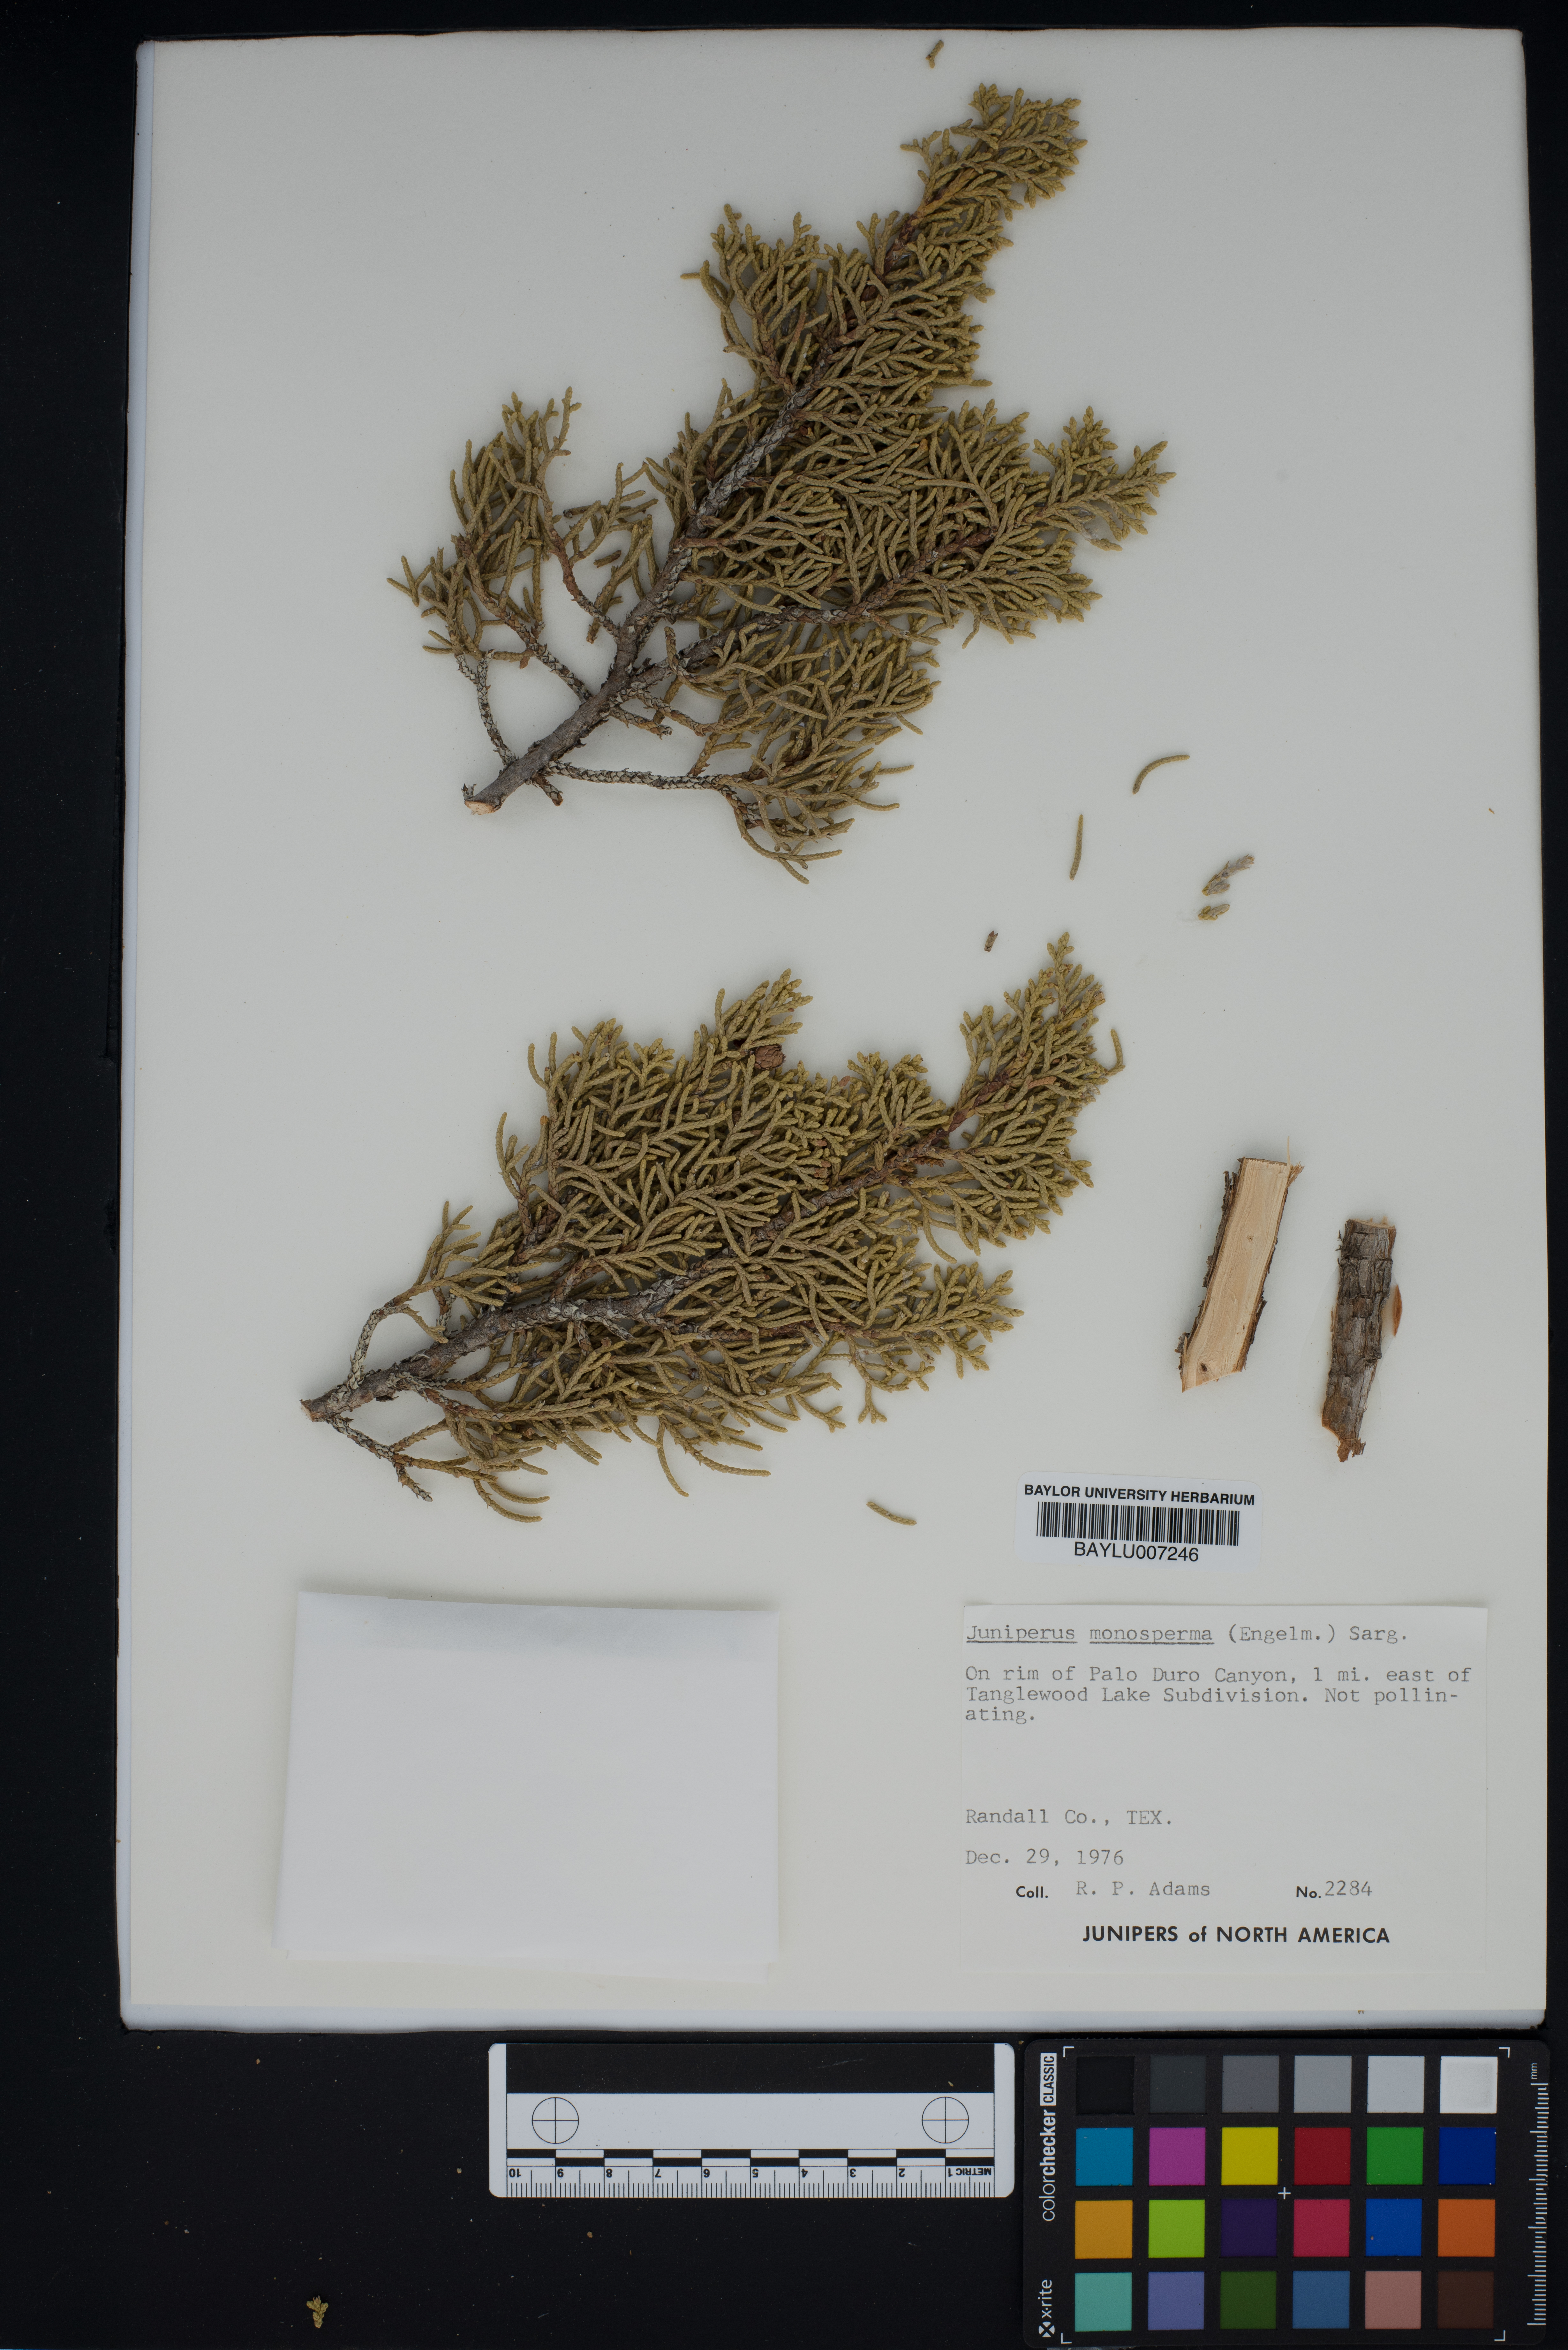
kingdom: Plantae
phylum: Tracheophyta
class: Pinopsida
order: Pinales
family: Cupressaceae
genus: Juniperus
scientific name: Juniperus monosperma
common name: One-seed juniper
